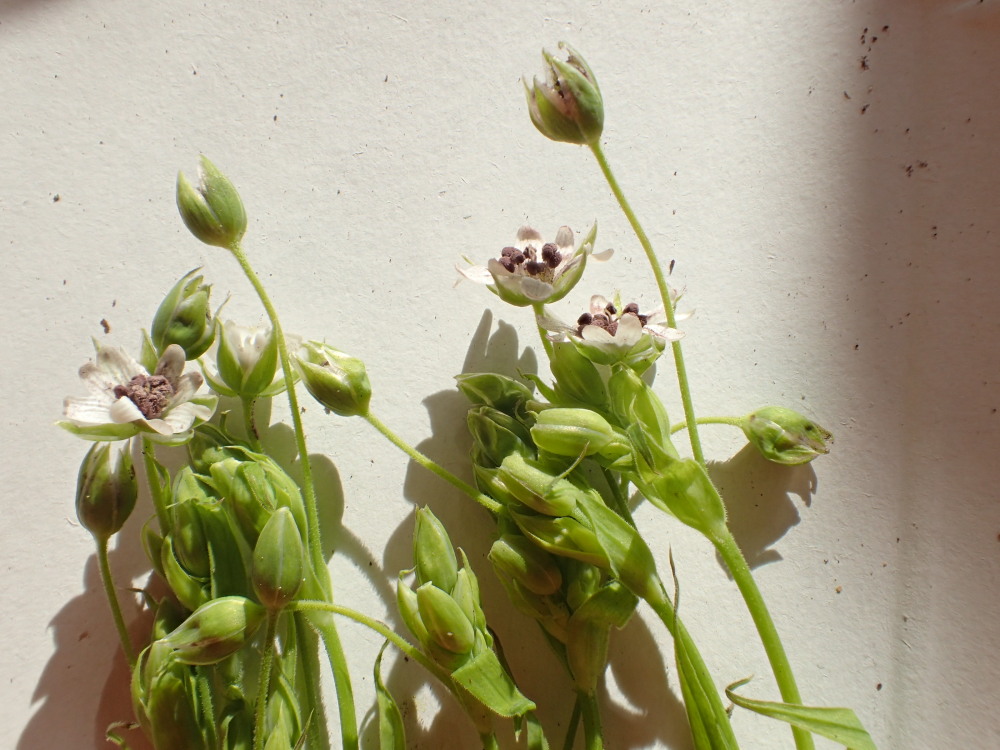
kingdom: Fungi
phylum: Basidiomycota
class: Microbotryomycetes
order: Microbotryales
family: Microbotryaceae
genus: Microbotryum
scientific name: Microbotryum stellariae
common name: fladstjerne-støvbladrust
